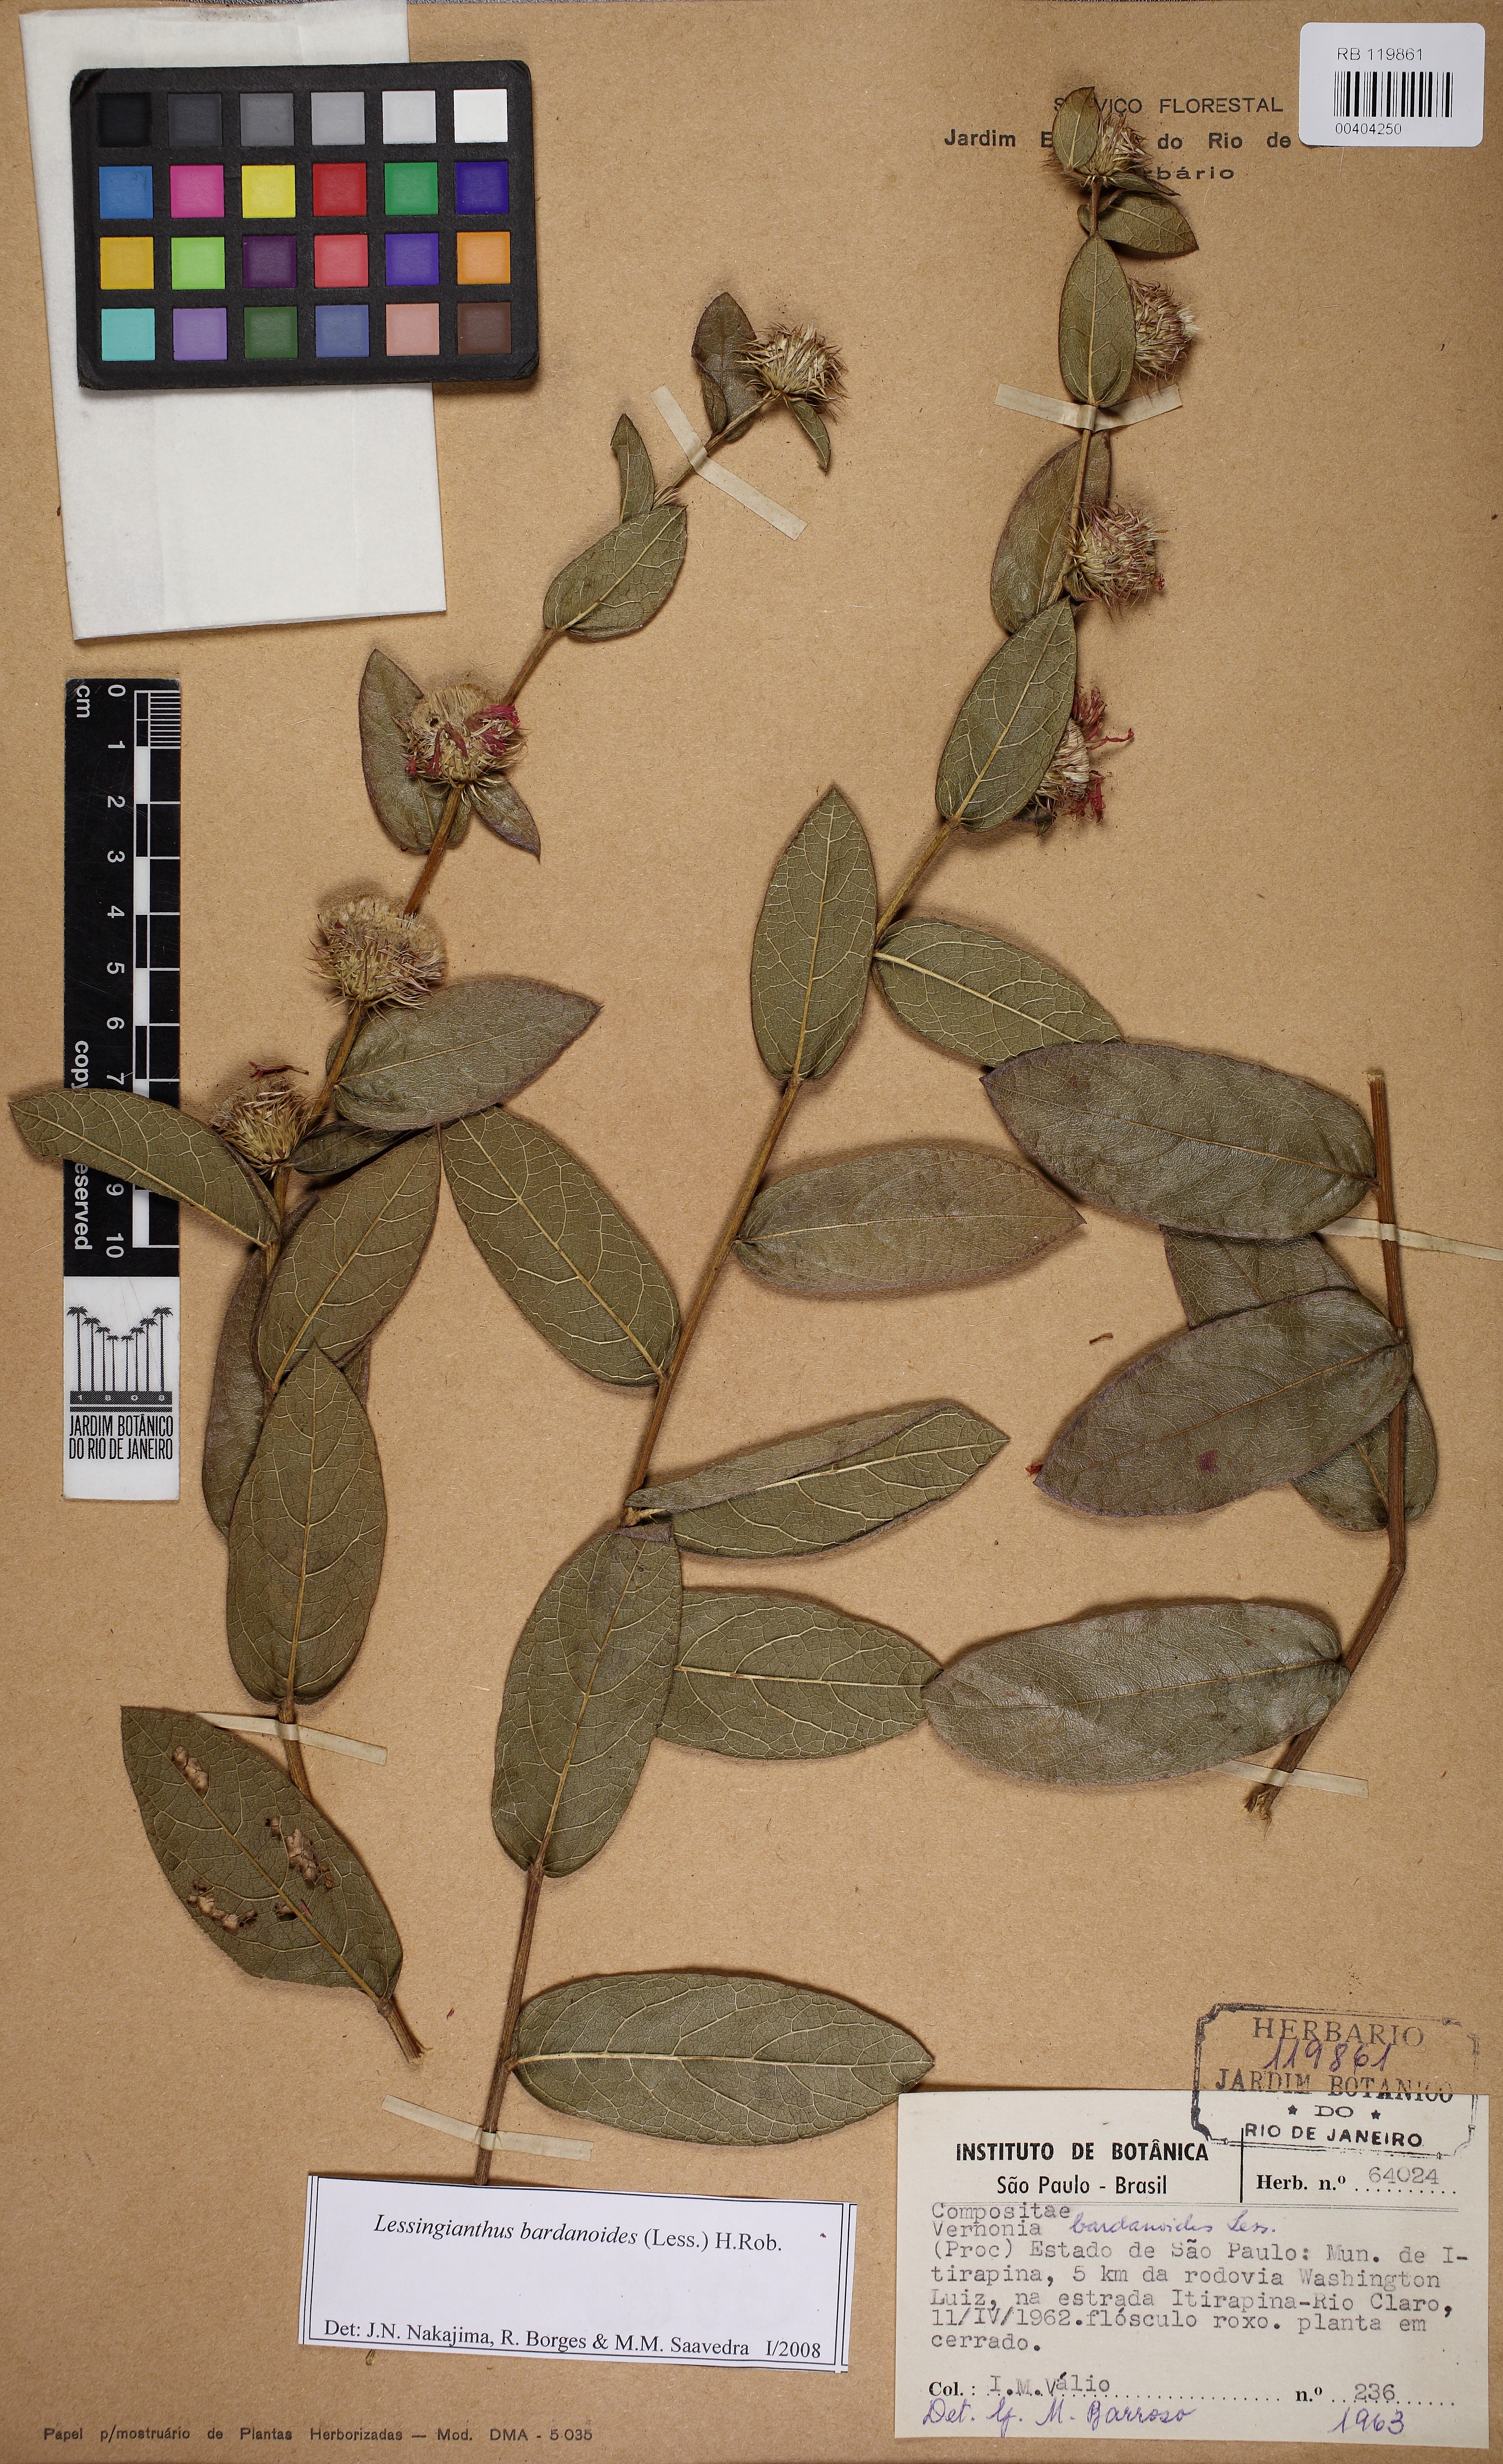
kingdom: Plantae
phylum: Tracheophyta
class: Magnoliopsida
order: Asterales
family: Asteraceae
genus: Lessingianthus
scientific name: Lessingianthus bardanioides
